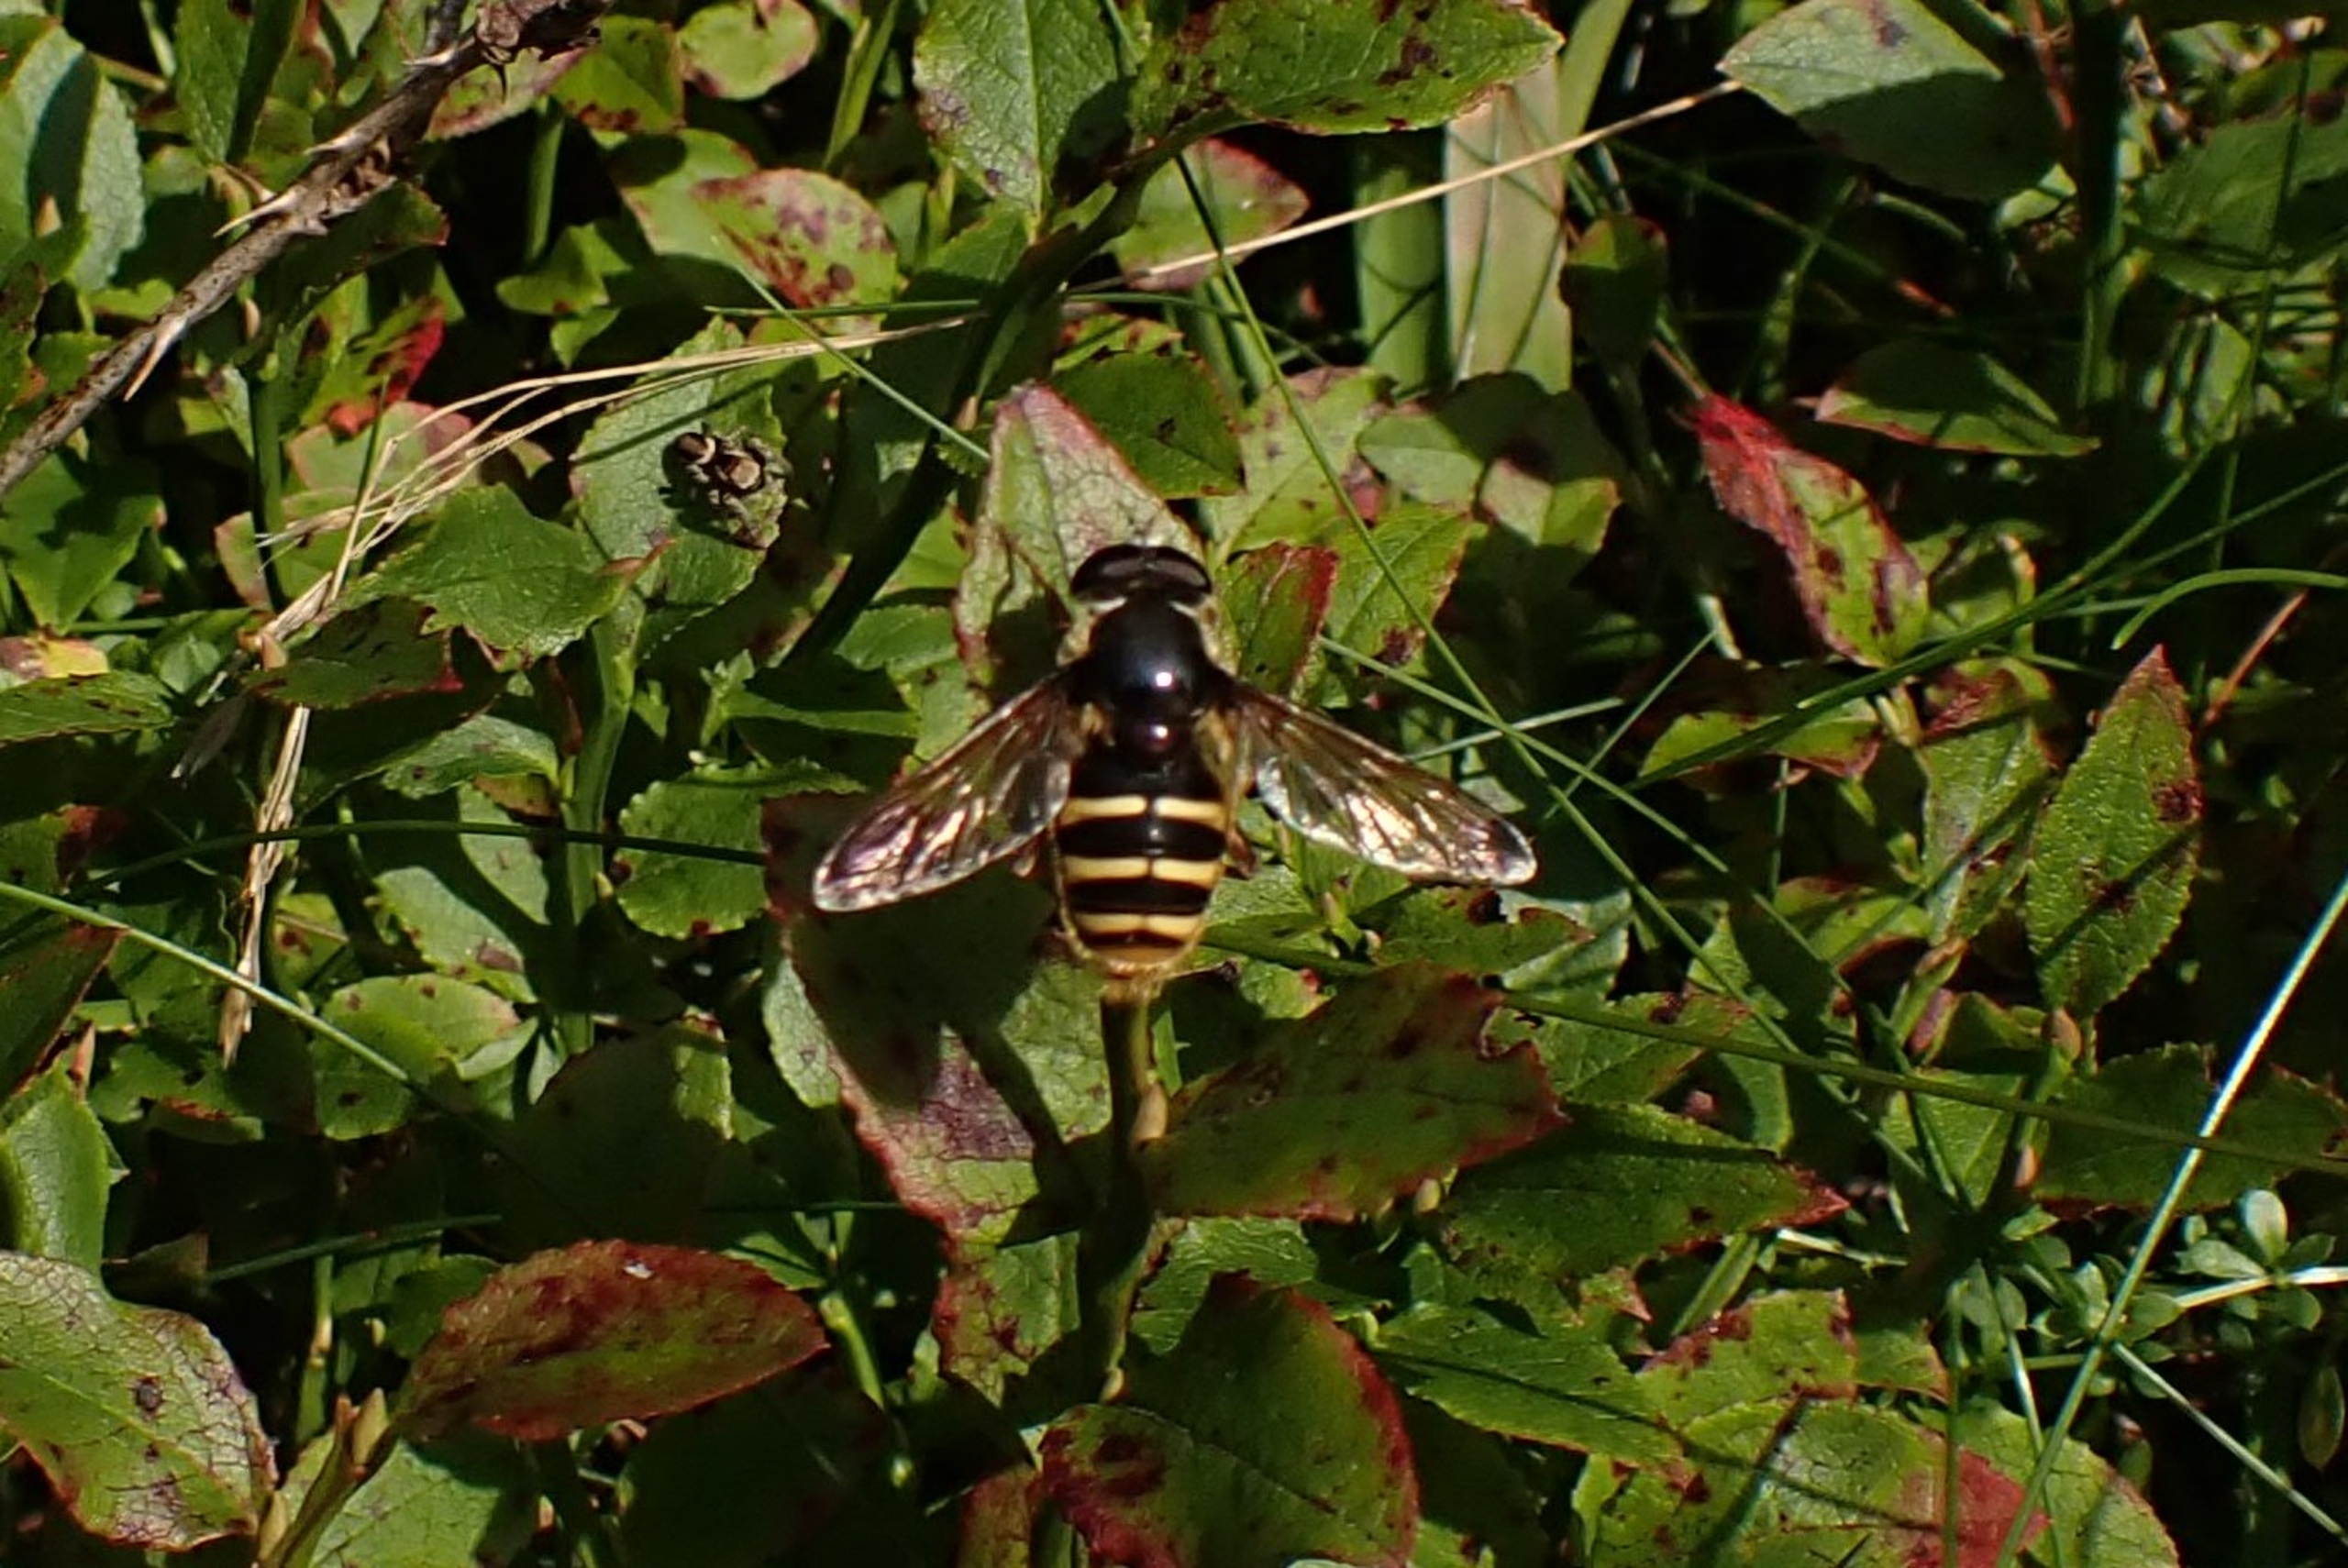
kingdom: Animalia
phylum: Arthropoda
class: Insecta
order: Diptera
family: Syrphidae
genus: Sericomyia
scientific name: Sericomyia silentis
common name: Tørve-silkesvirreflue
